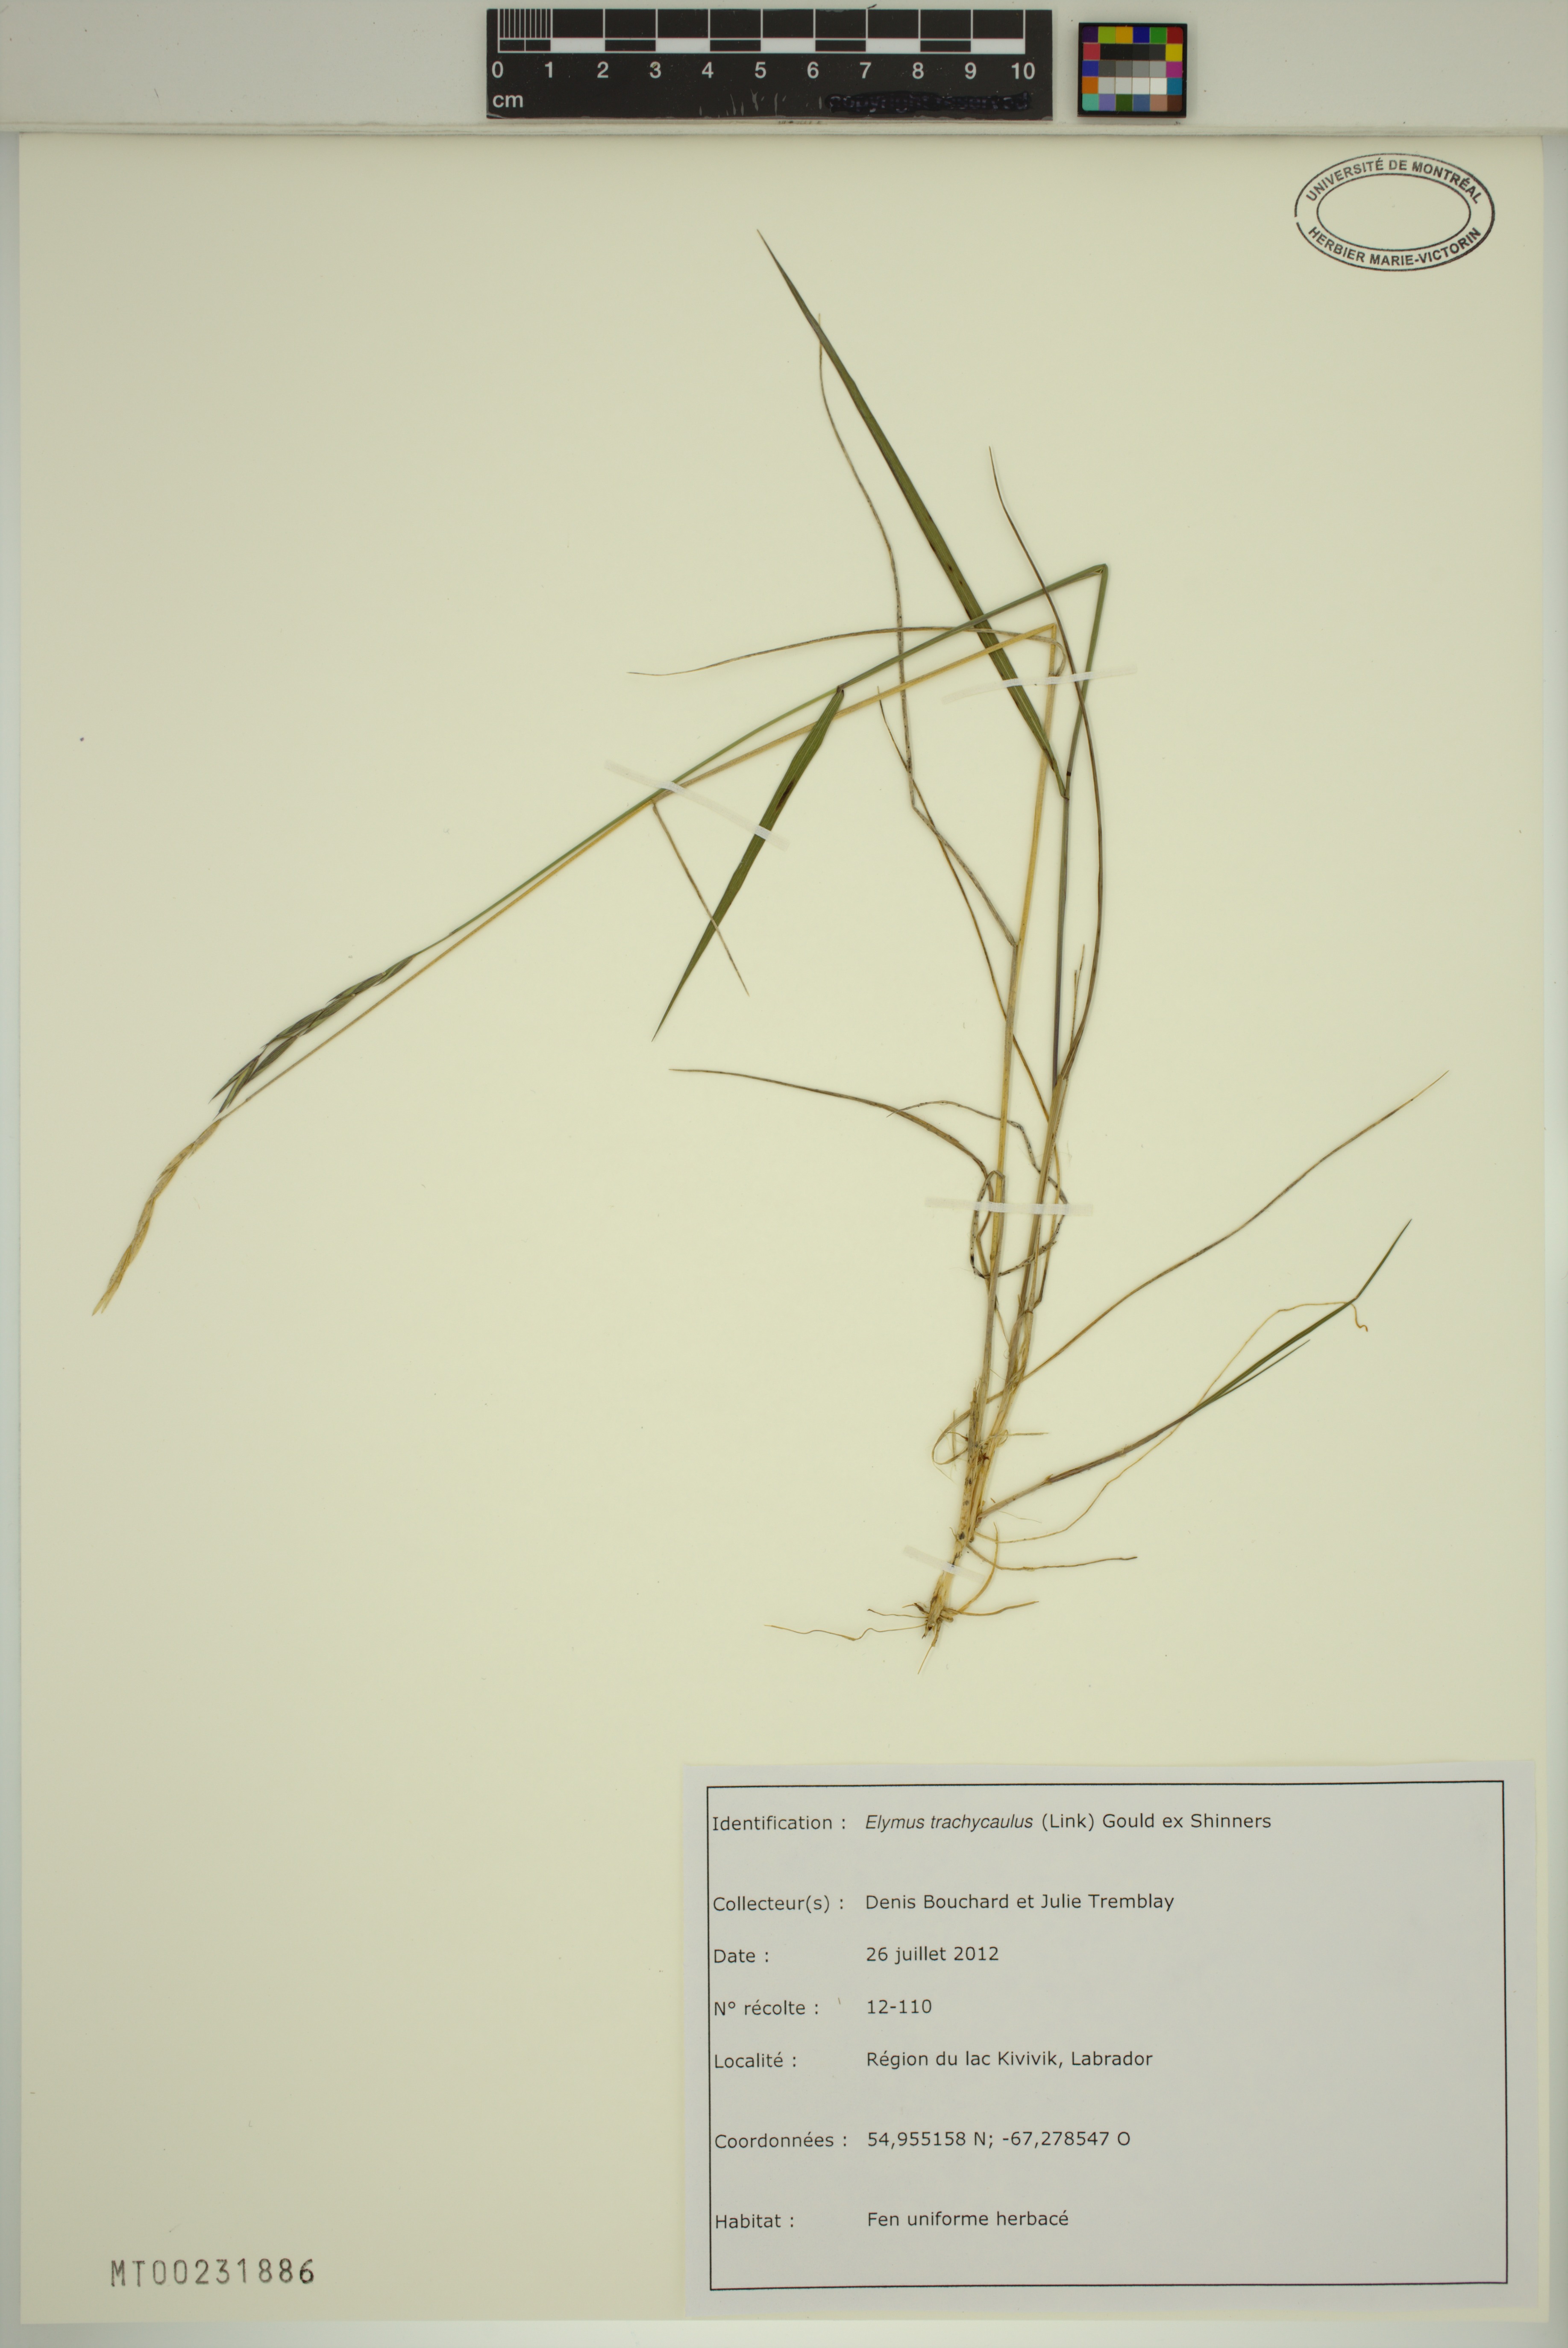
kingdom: Plantae
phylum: Tracheophyta
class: Liliopsida
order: Poales
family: Poaceae
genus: Elymus
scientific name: Elymus violaceus
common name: Arctic wheatgrass
